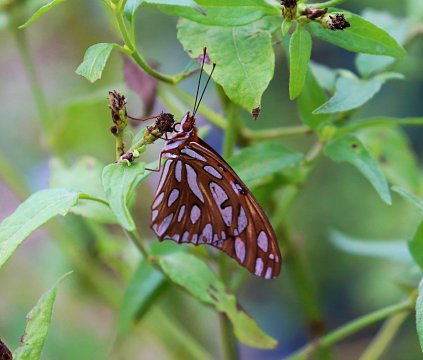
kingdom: Animalia
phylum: Arthropoda
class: Insecta
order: Lepidoptera
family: Nymphalidae
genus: Dione
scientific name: Dione vanillae
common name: Gulf Fritillary
